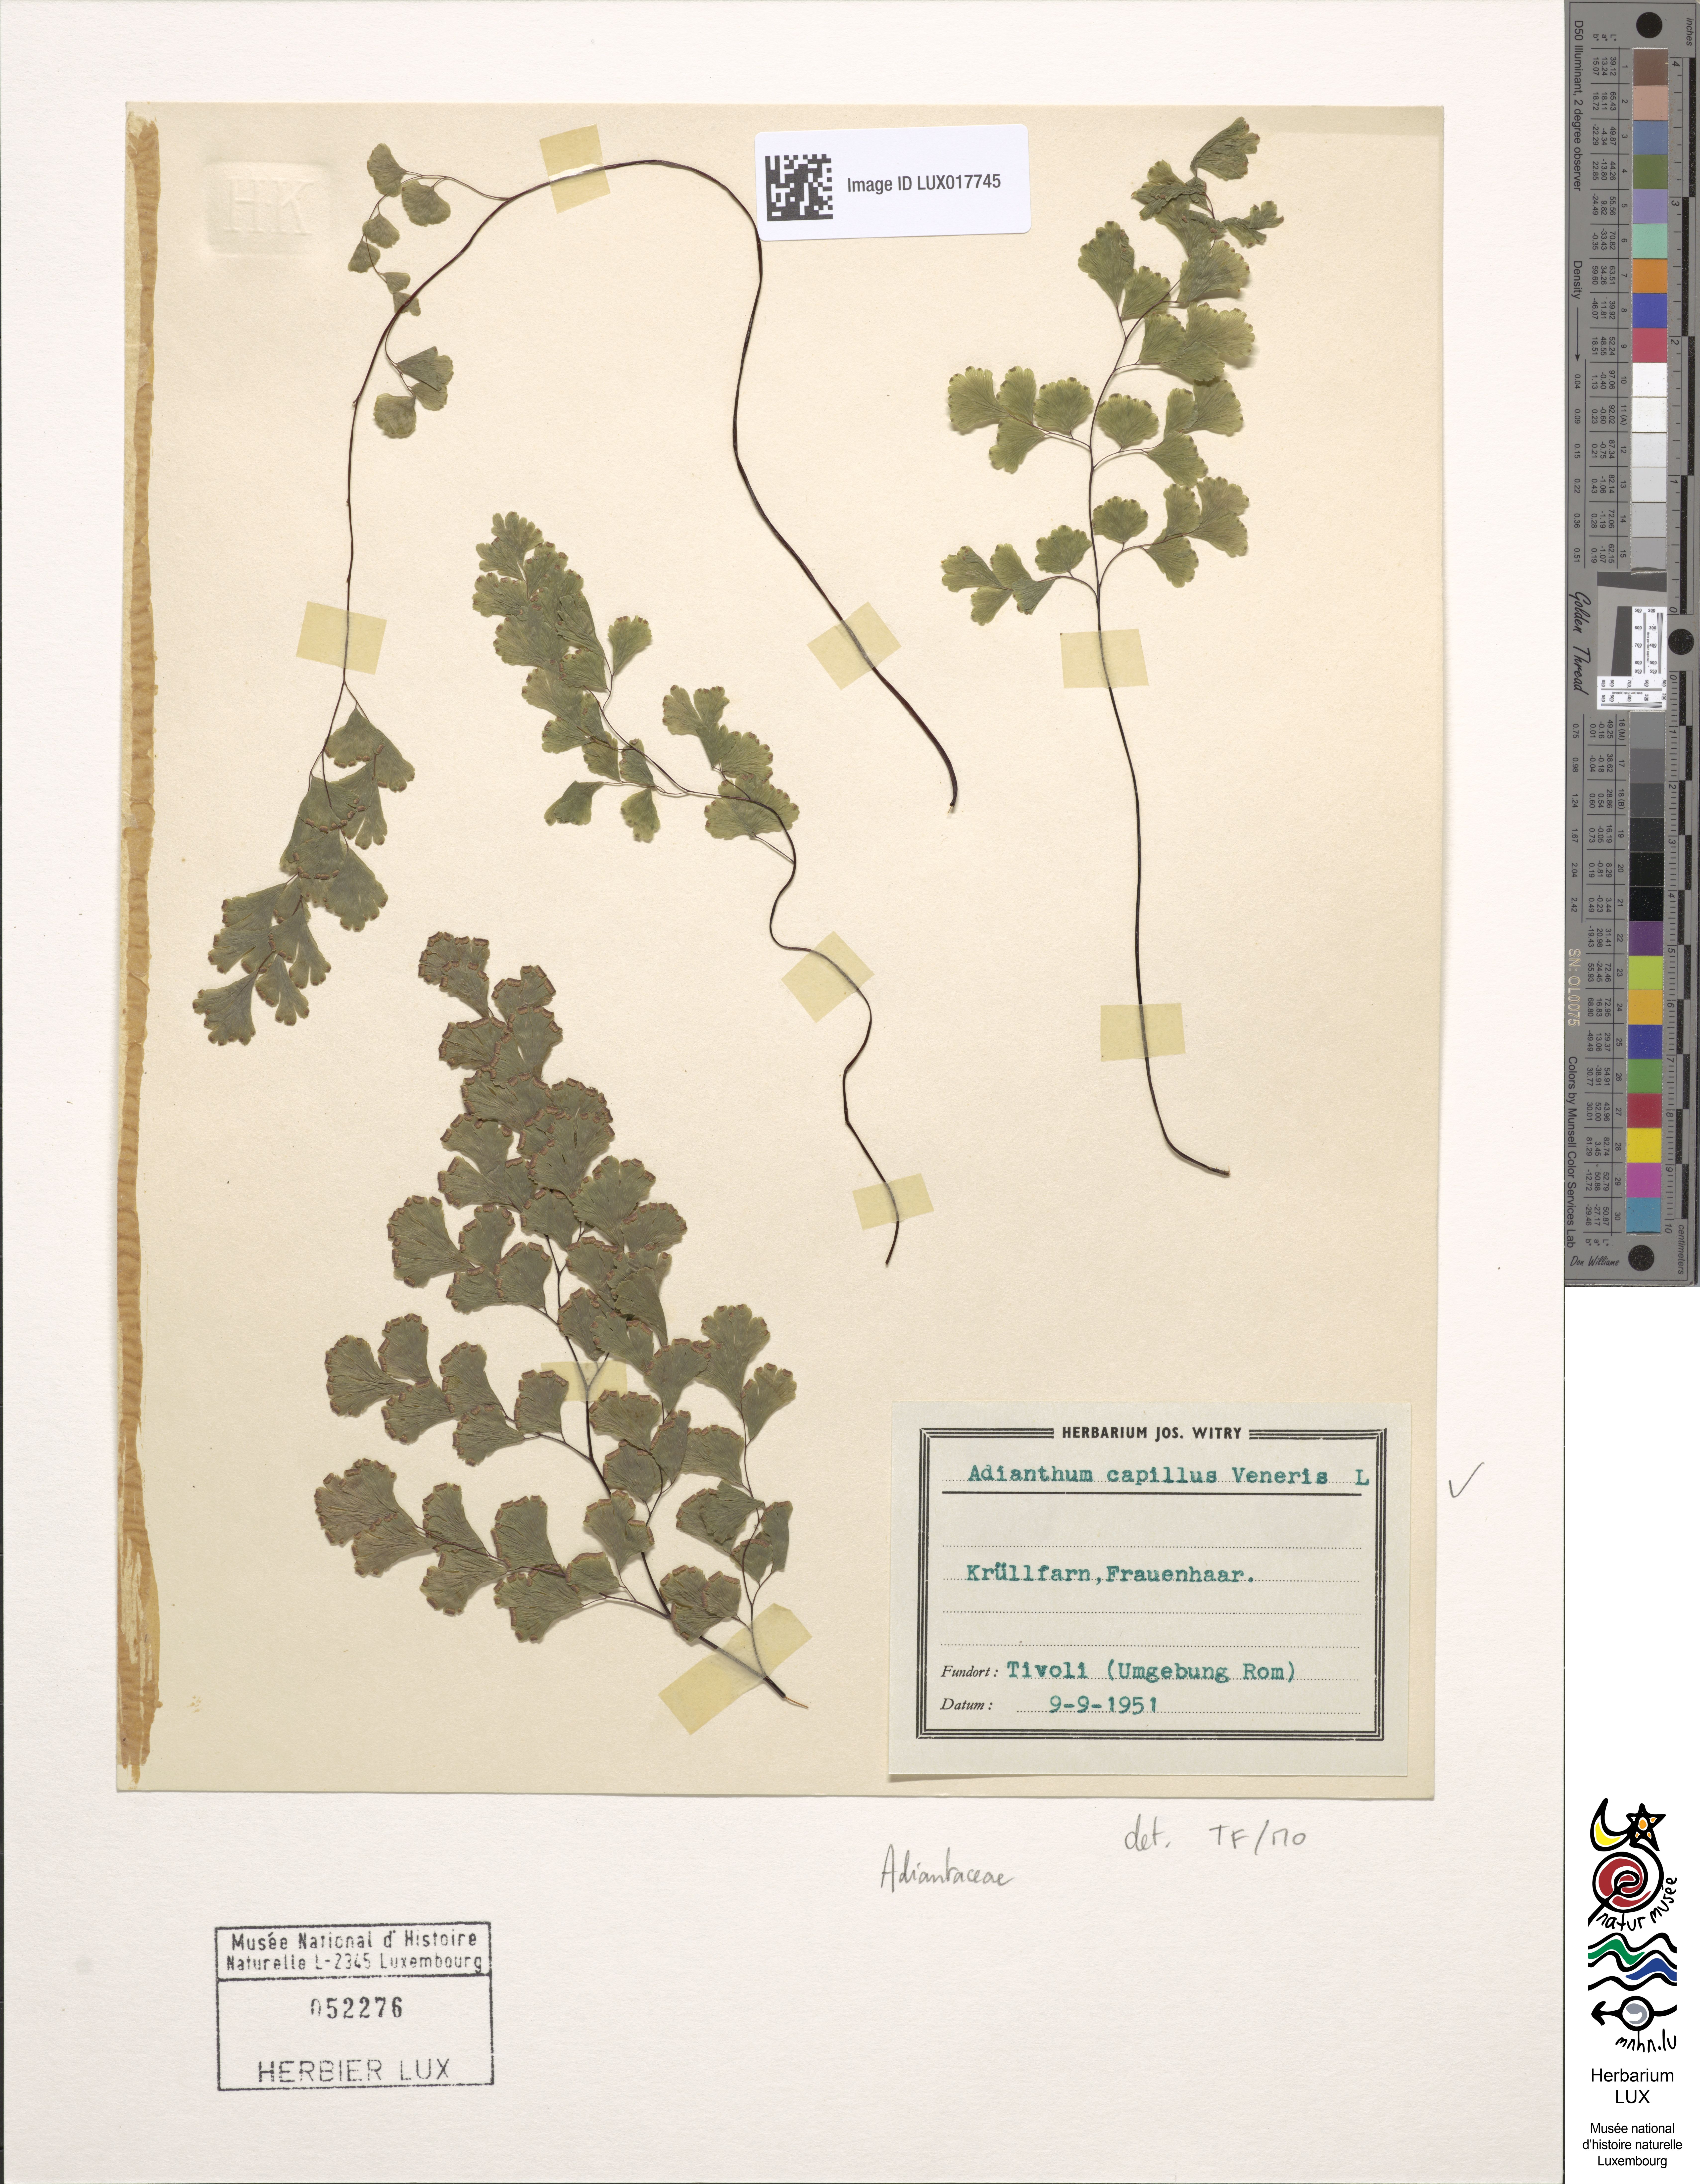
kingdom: Plantae
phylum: Tracheophyta
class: Polypodiopsida
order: Polypodiales
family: Pteridaceae
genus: Adiantum
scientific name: Adiantum capillus-veneris
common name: Maidenhair fern
